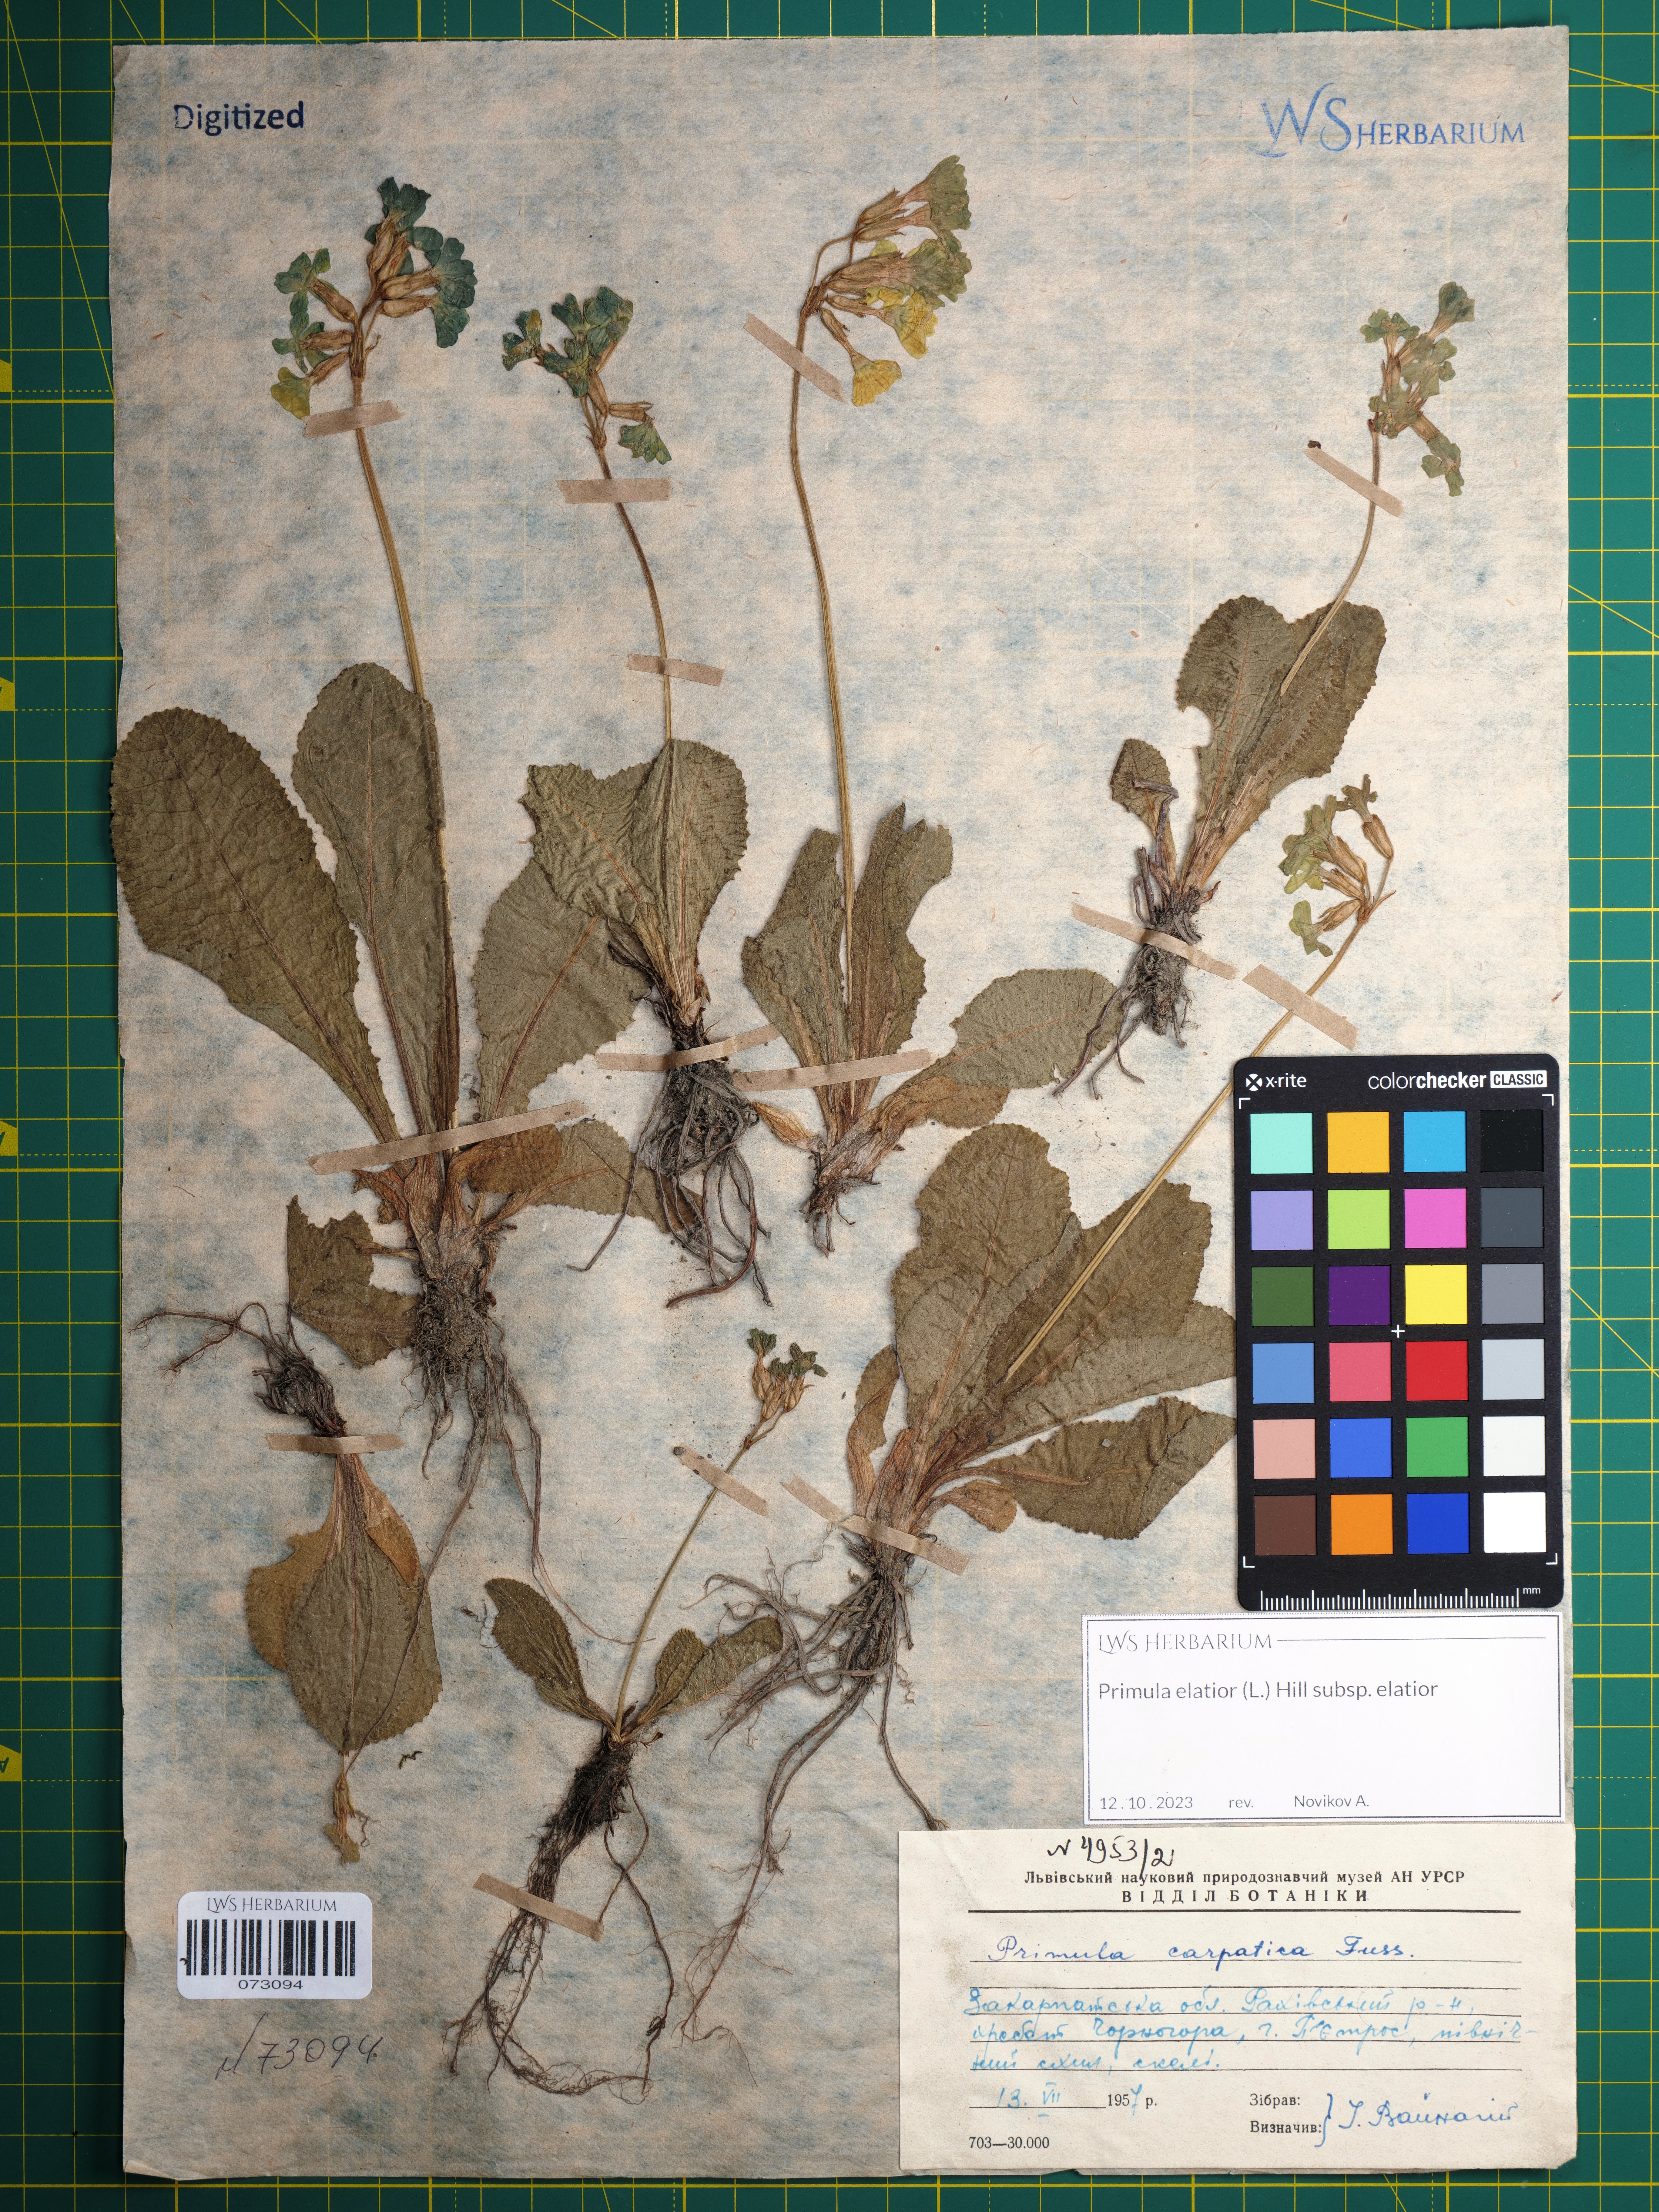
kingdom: Plantae
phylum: Tracheophyta
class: Magnoliopsida
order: Ericales
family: Primulaceae
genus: Primula
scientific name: Primula elatior
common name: Oxlip
